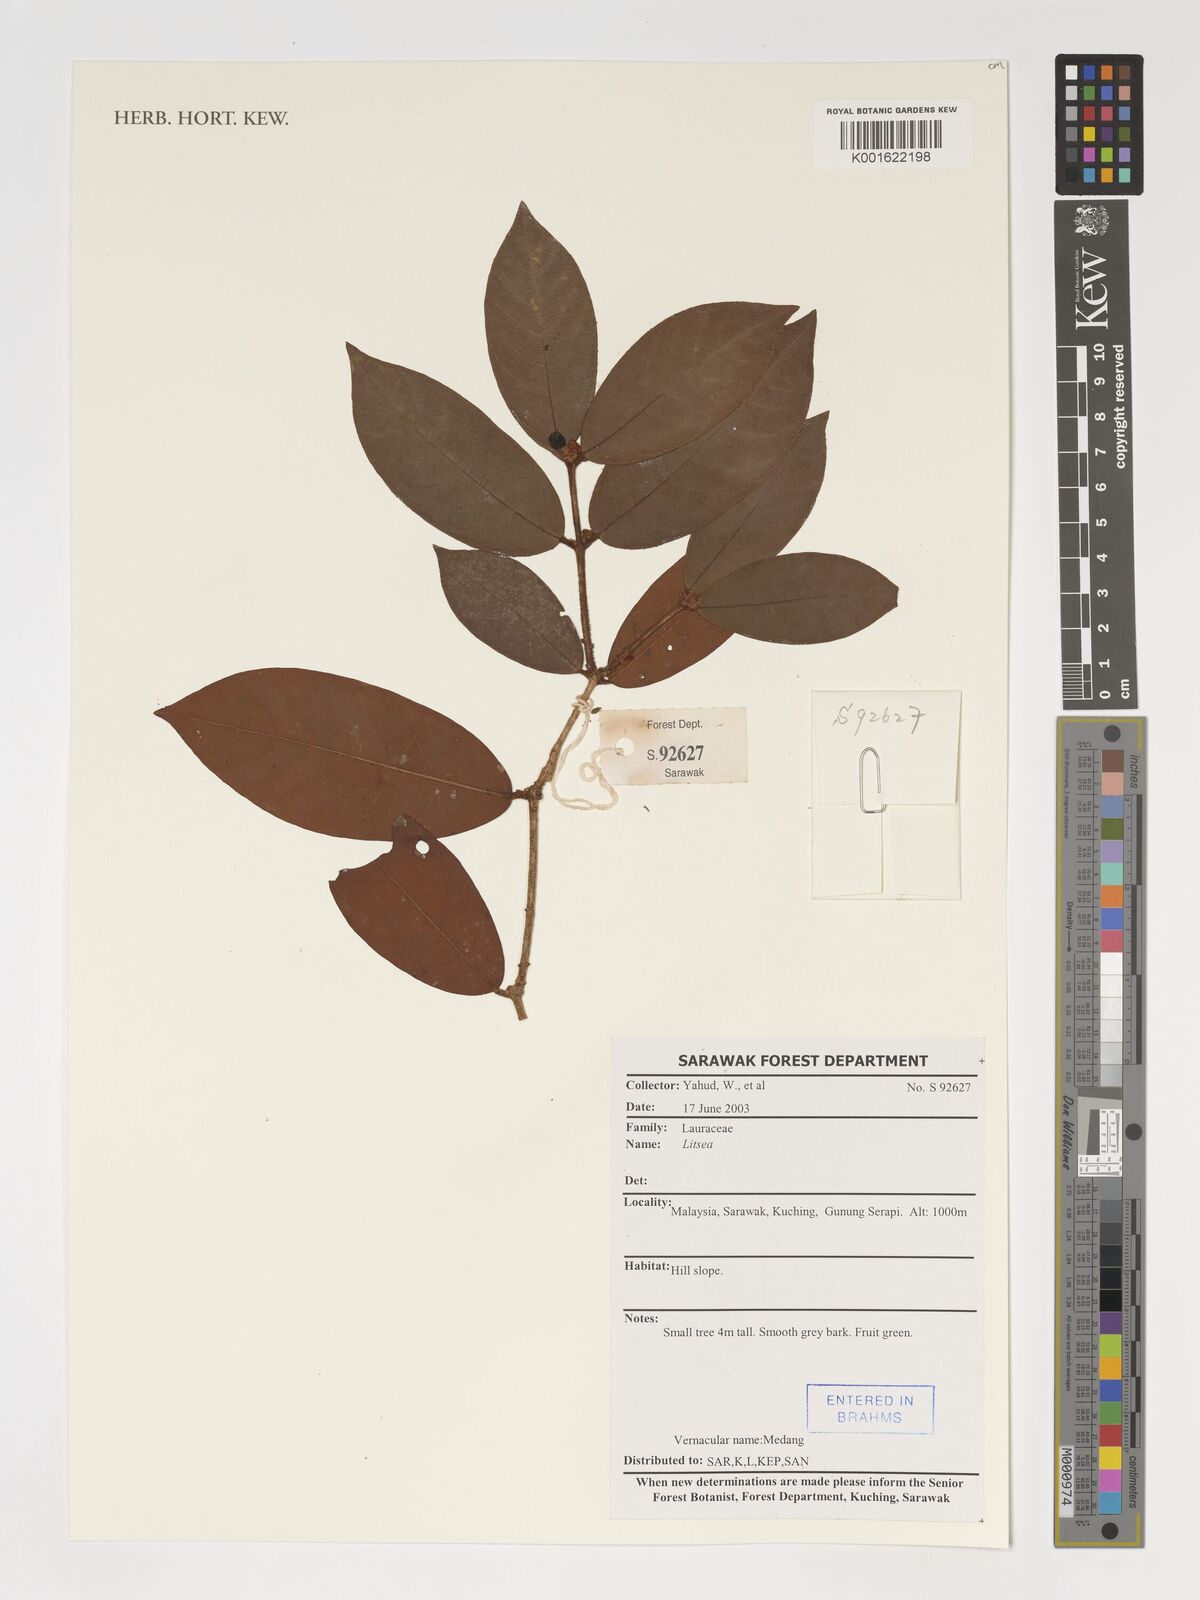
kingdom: Plantae
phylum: Tracheophyta
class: Magnoliopsida
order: Laurales
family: Lauraceae
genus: Litsea
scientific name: Litsea
